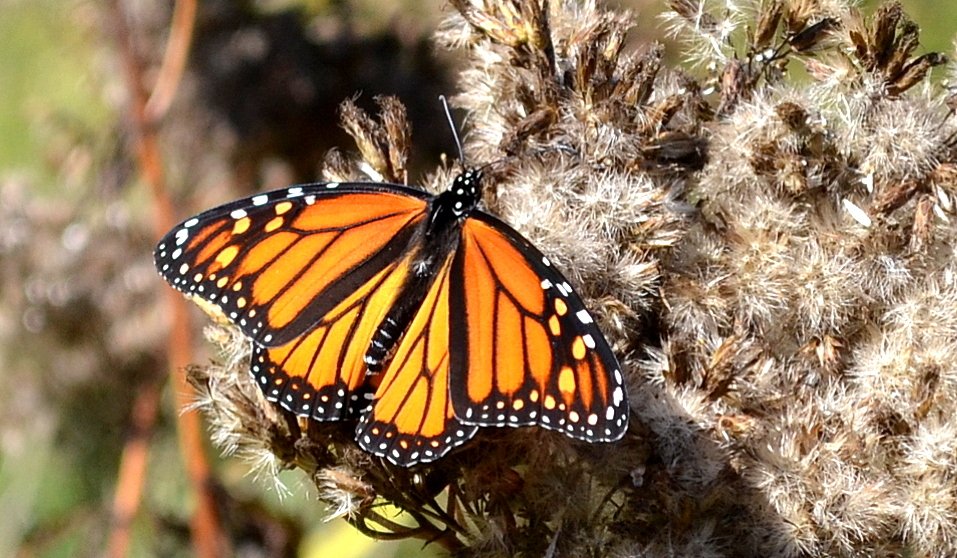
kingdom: Animalia
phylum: Arthropoda
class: Insecta
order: Lepidoptera
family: Nymphalidae
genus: Danaus
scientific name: Danaus plexippus
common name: Monarch
